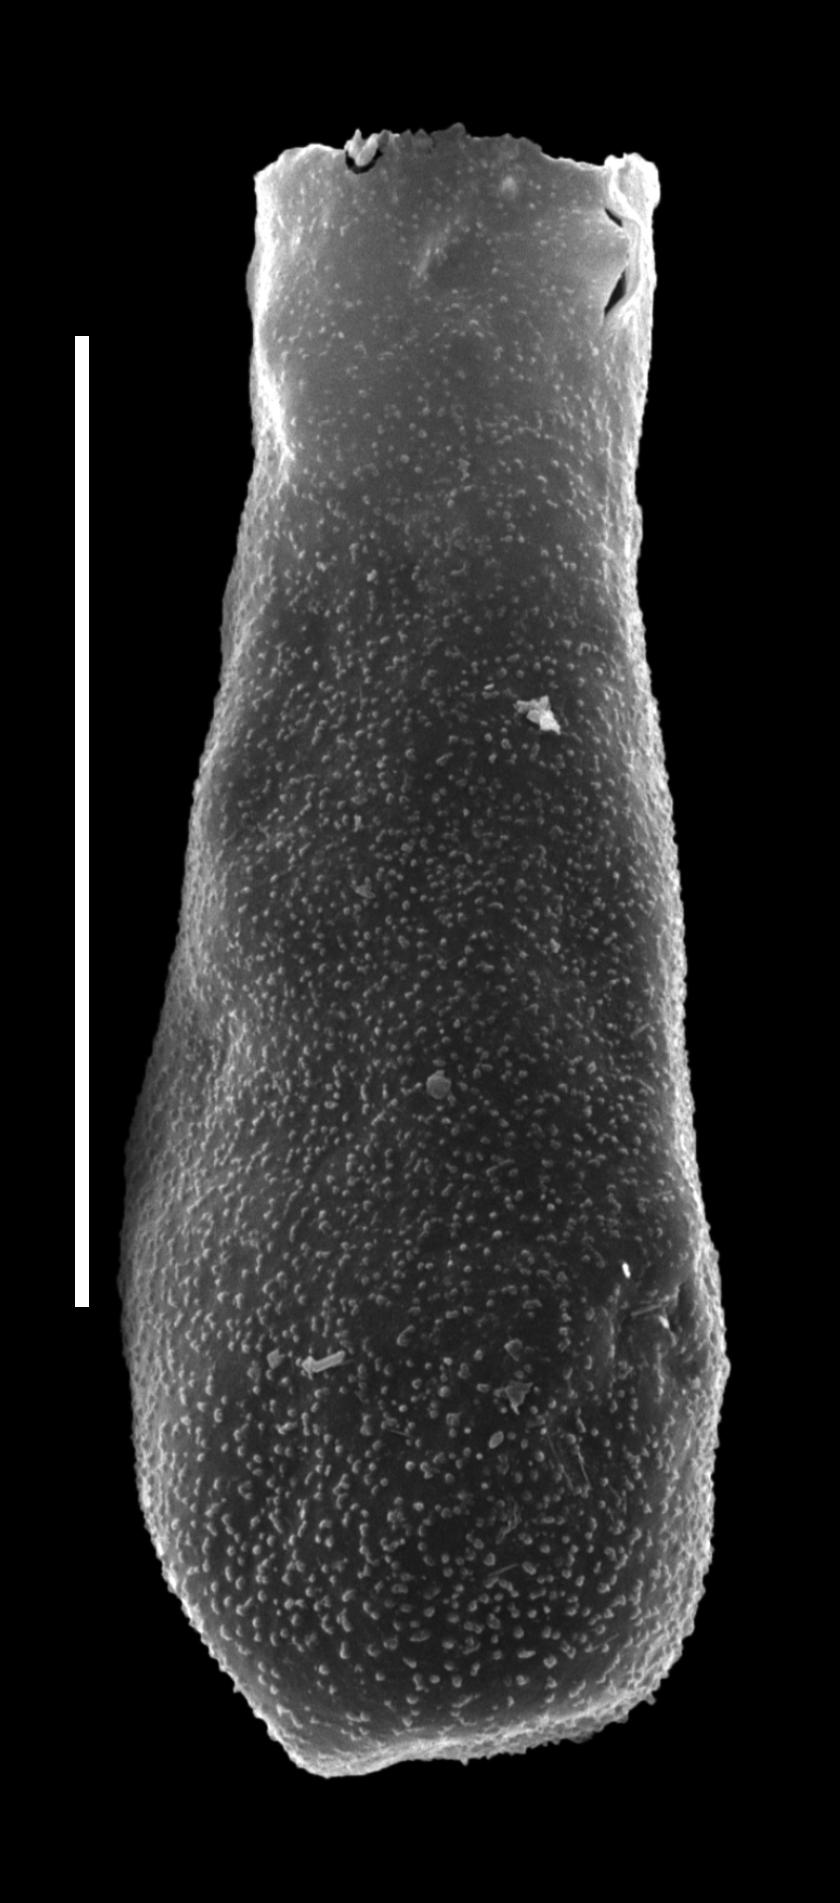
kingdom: Protozoa
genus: Belonechitina
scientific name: Belonechitina
